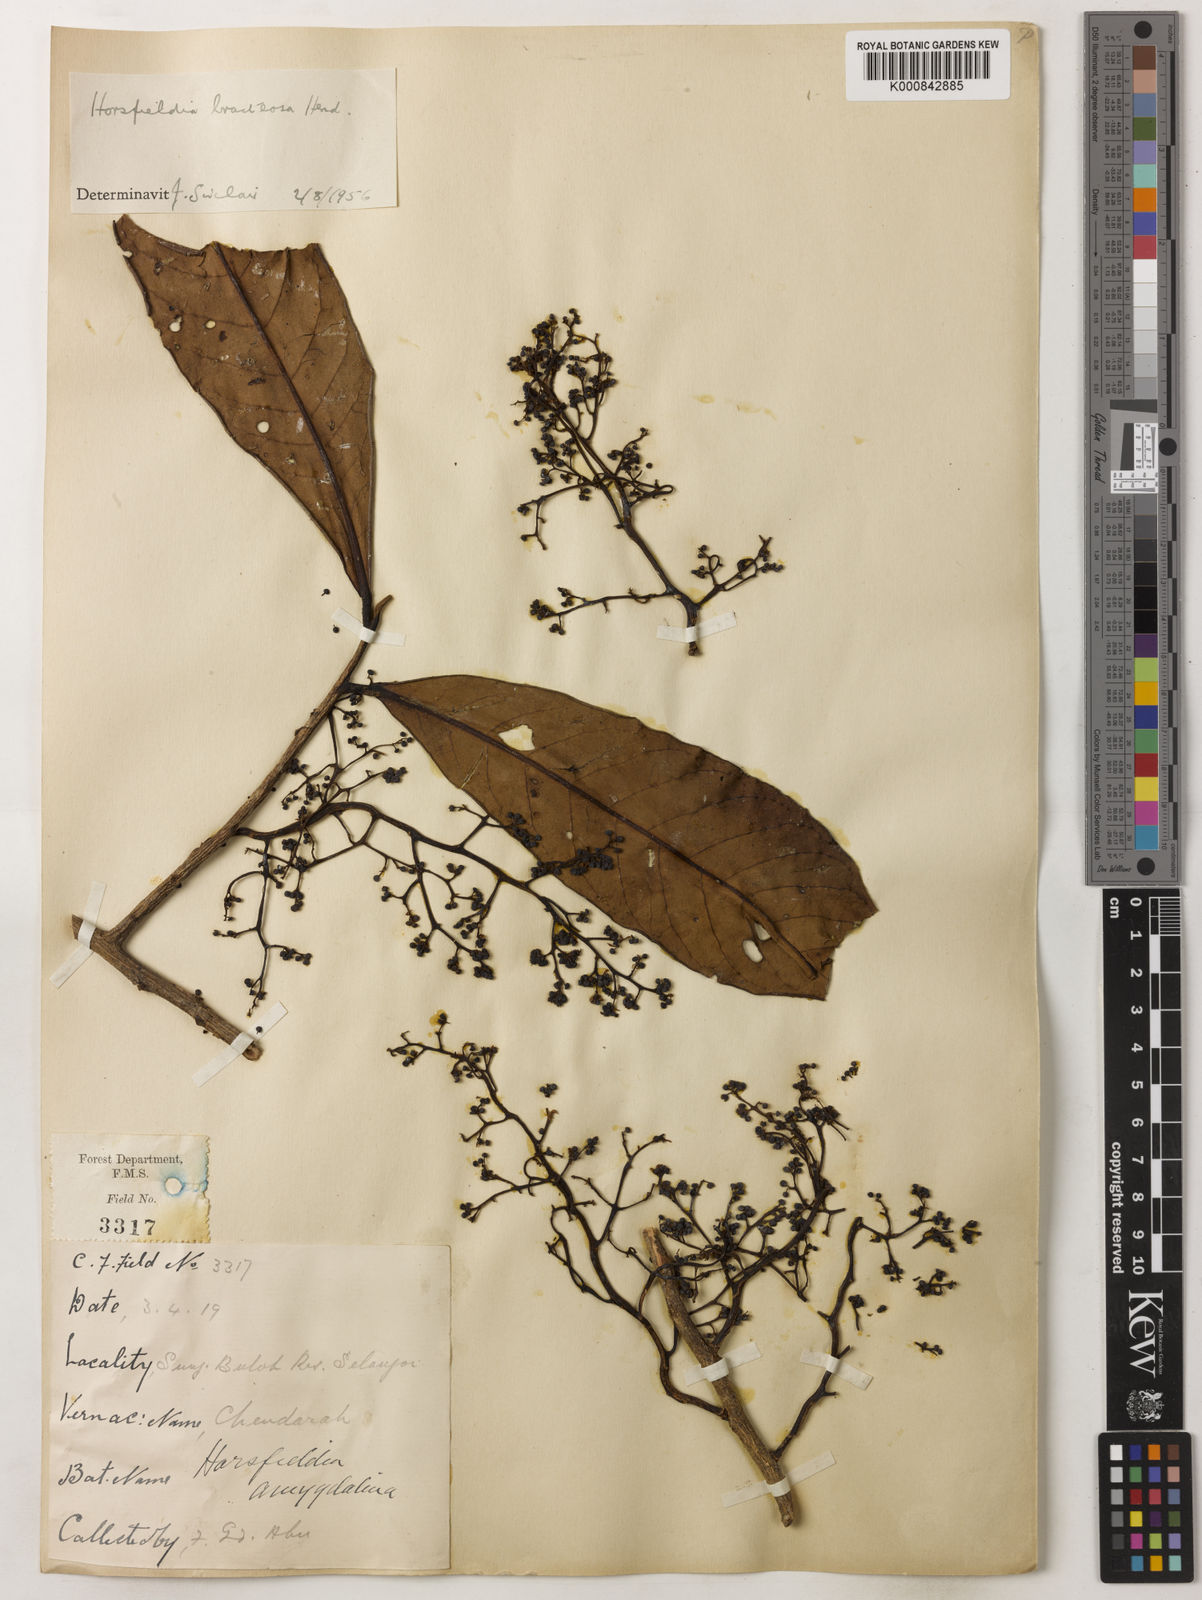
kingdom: Plantae
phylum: Tracheophyta
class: Magnoliopsida
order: Magnoliales
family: Myristicaceae
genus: Horsfieldia
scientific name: Horsfieldia sucosa
